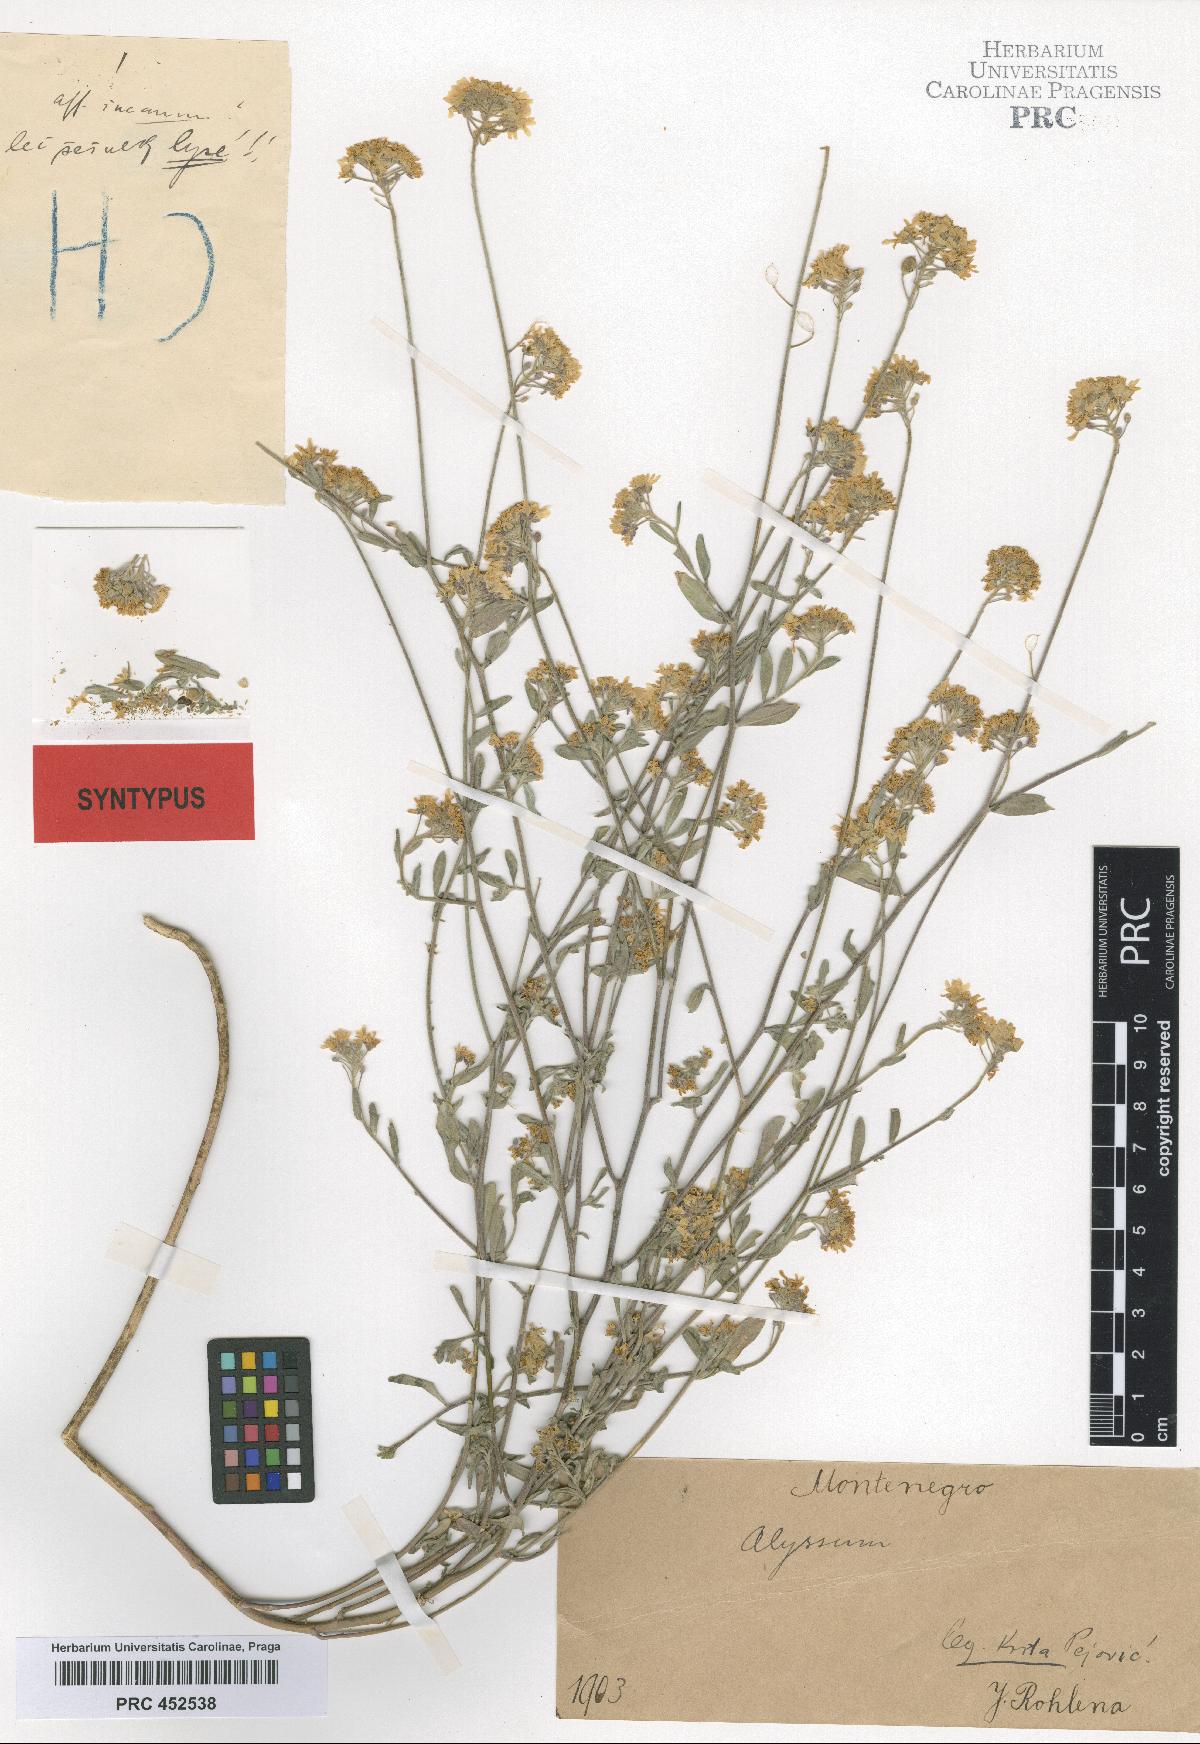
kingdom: Plantae
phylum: Tracheophyta
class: Magnoliopsida
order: Brassicales
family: Brassicaceae
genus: Berteroa
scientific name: Berteroa gintlii
